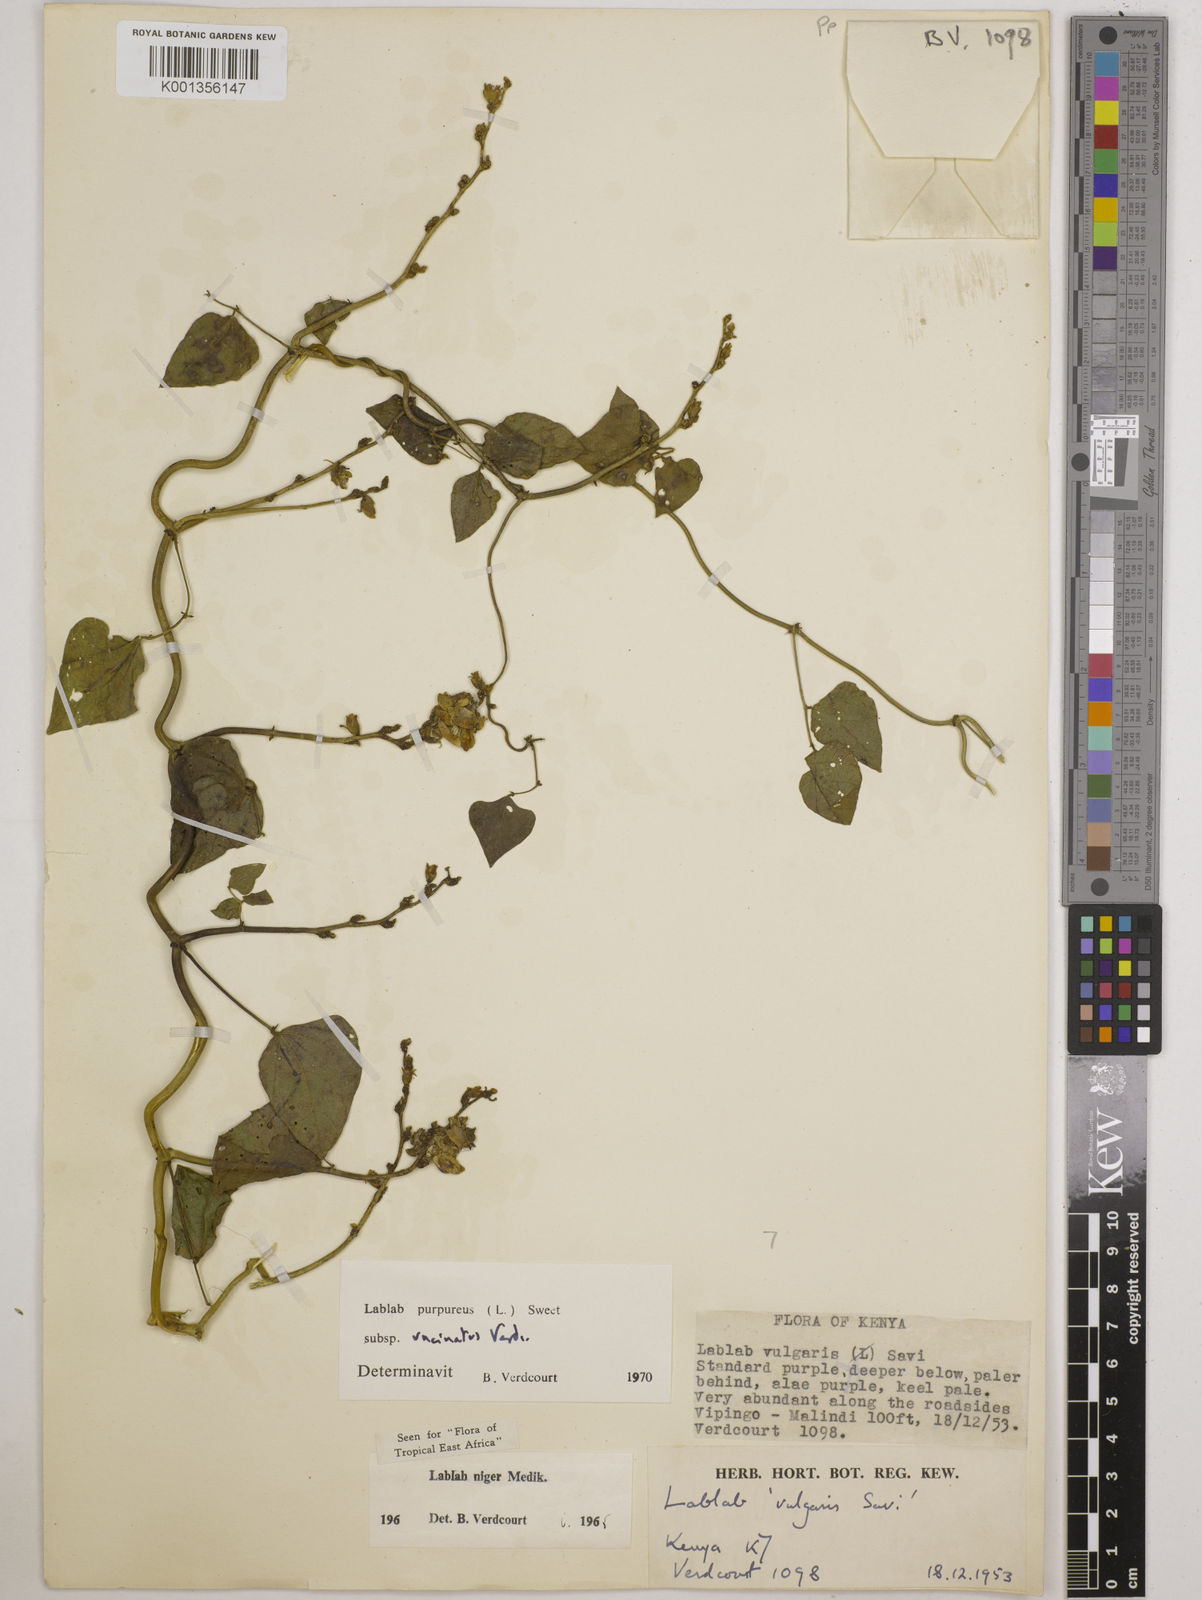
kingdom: Plantae
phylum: Tracheophyta
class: Magnoliopsida
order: Fabales
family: Fabaceae
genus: Lablab
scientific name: Lablab purpureus
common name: Lablab-bean
